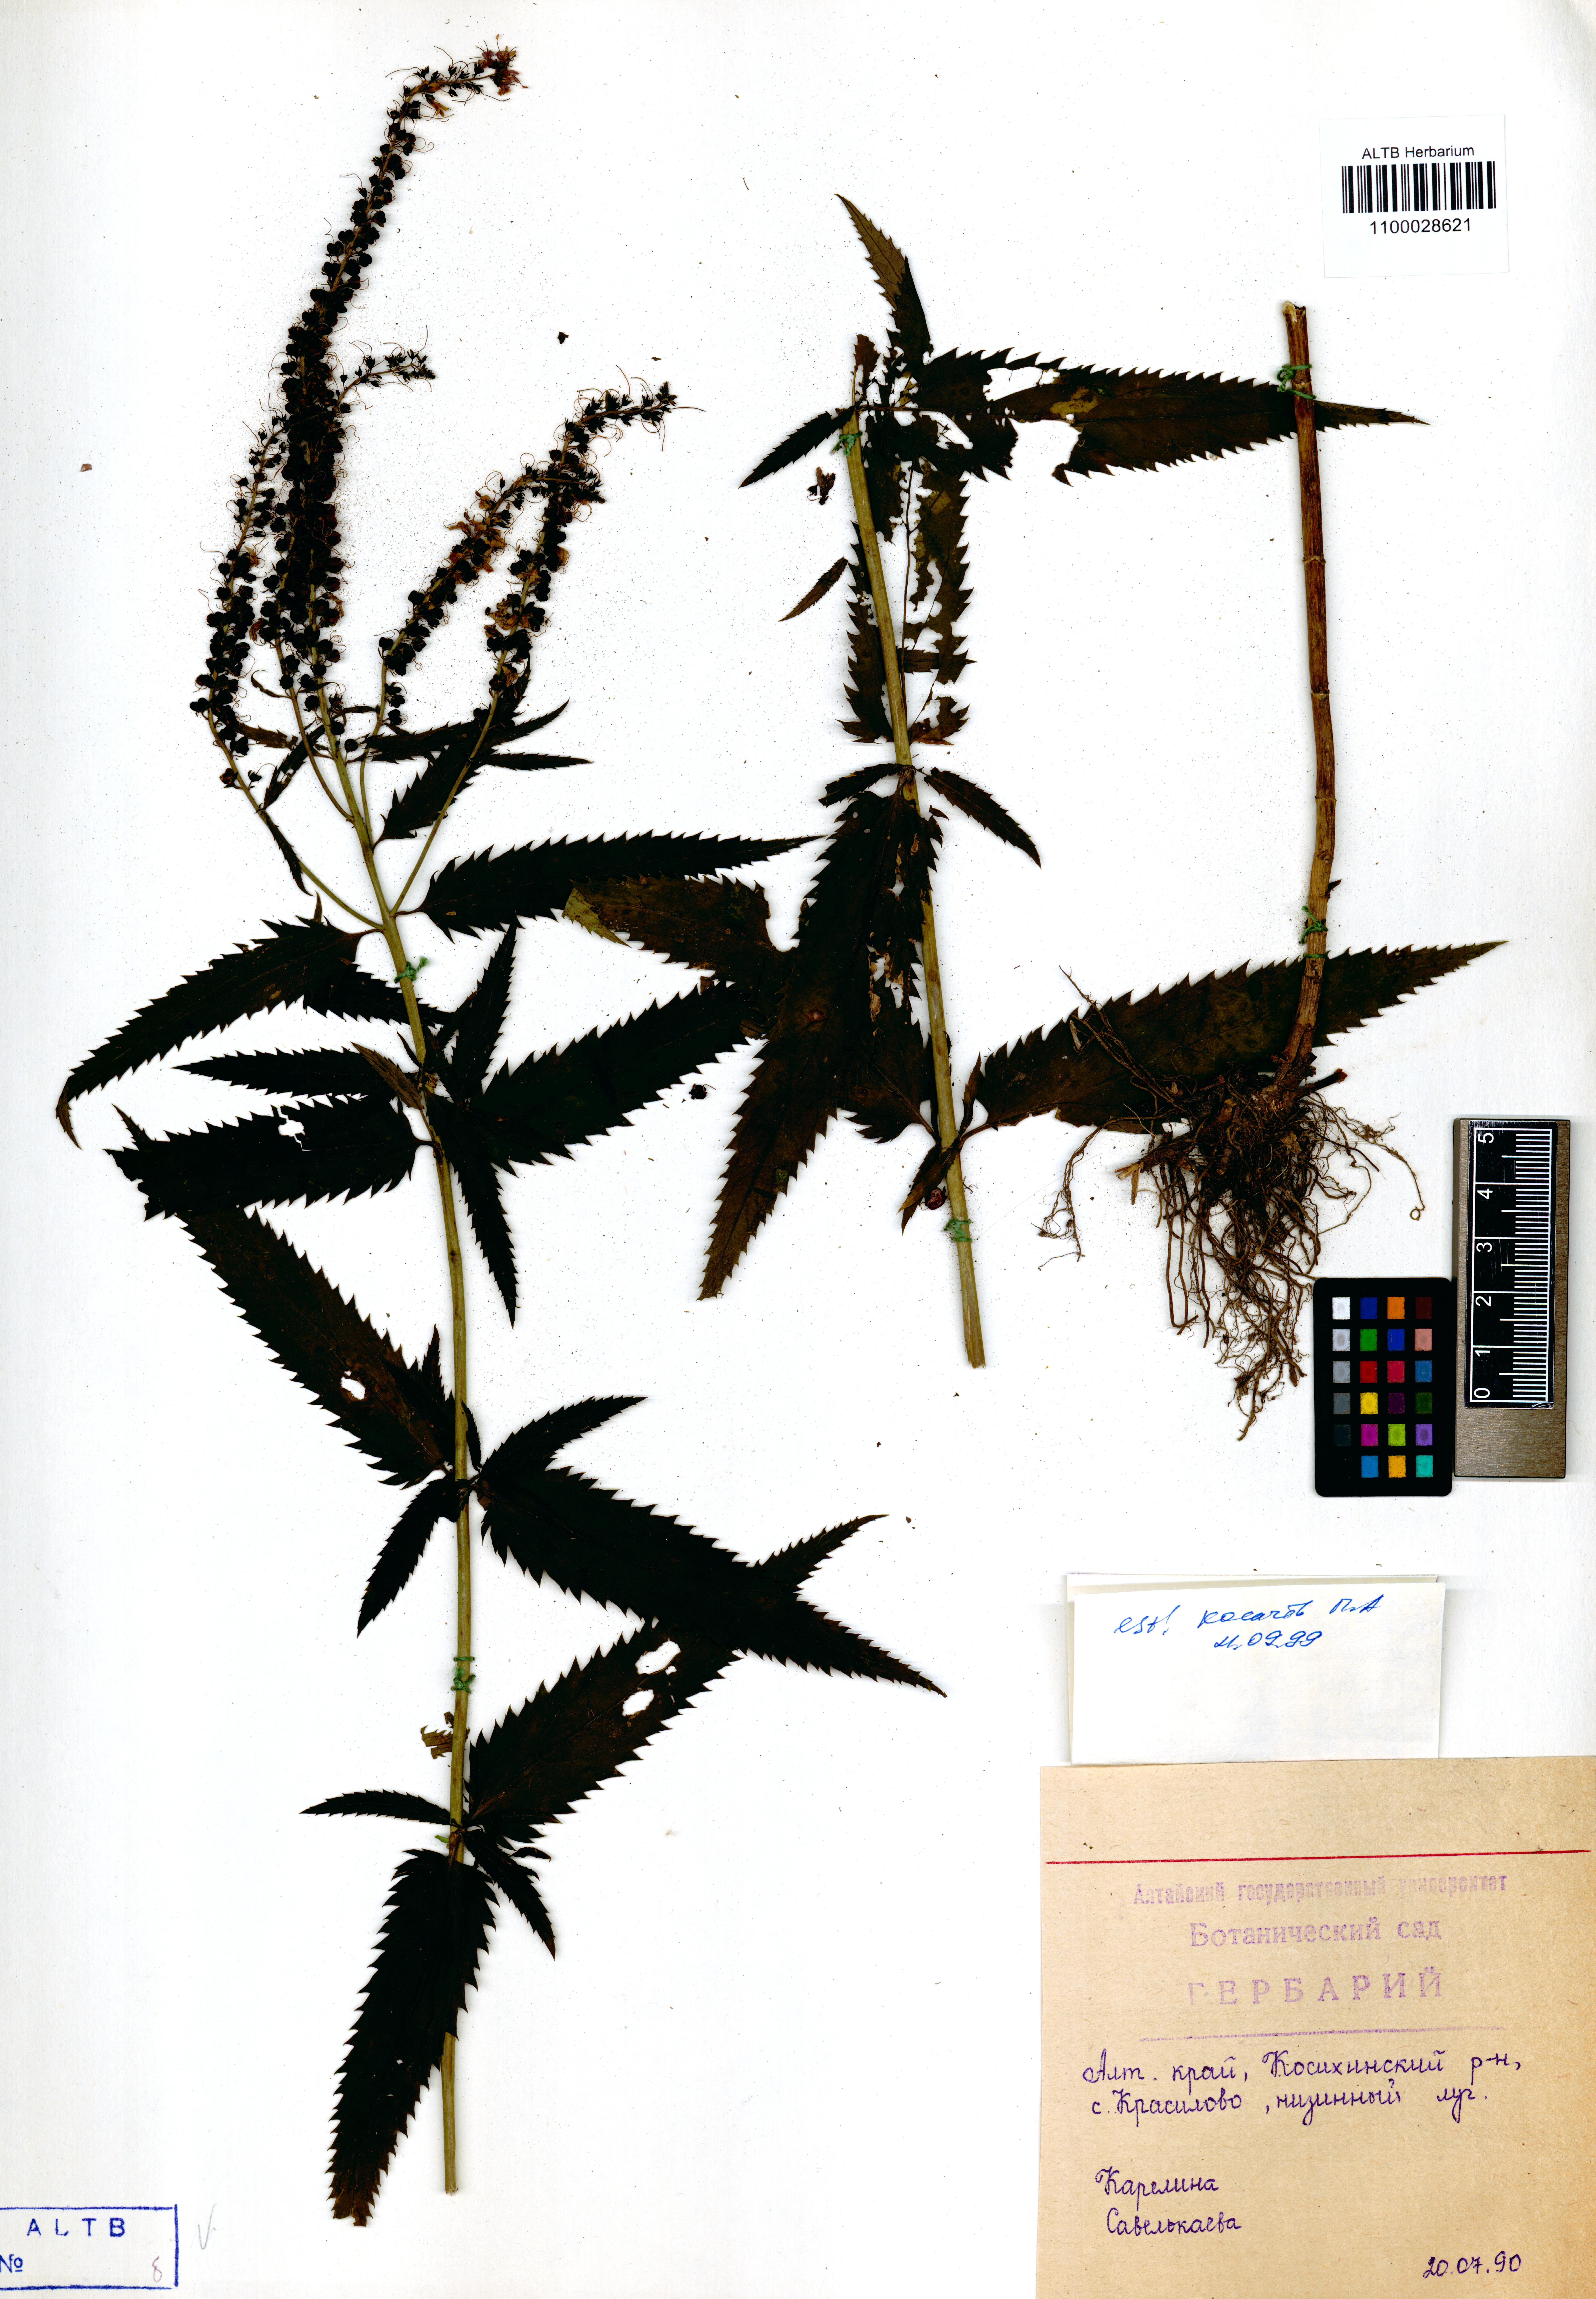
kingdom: Plantae
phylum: Tracheophyta
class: Magnoliopsida
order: Lamiales
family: Plantaginaceae
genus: Veronica
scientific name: Veronica longifolia
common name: Garden speedwell
